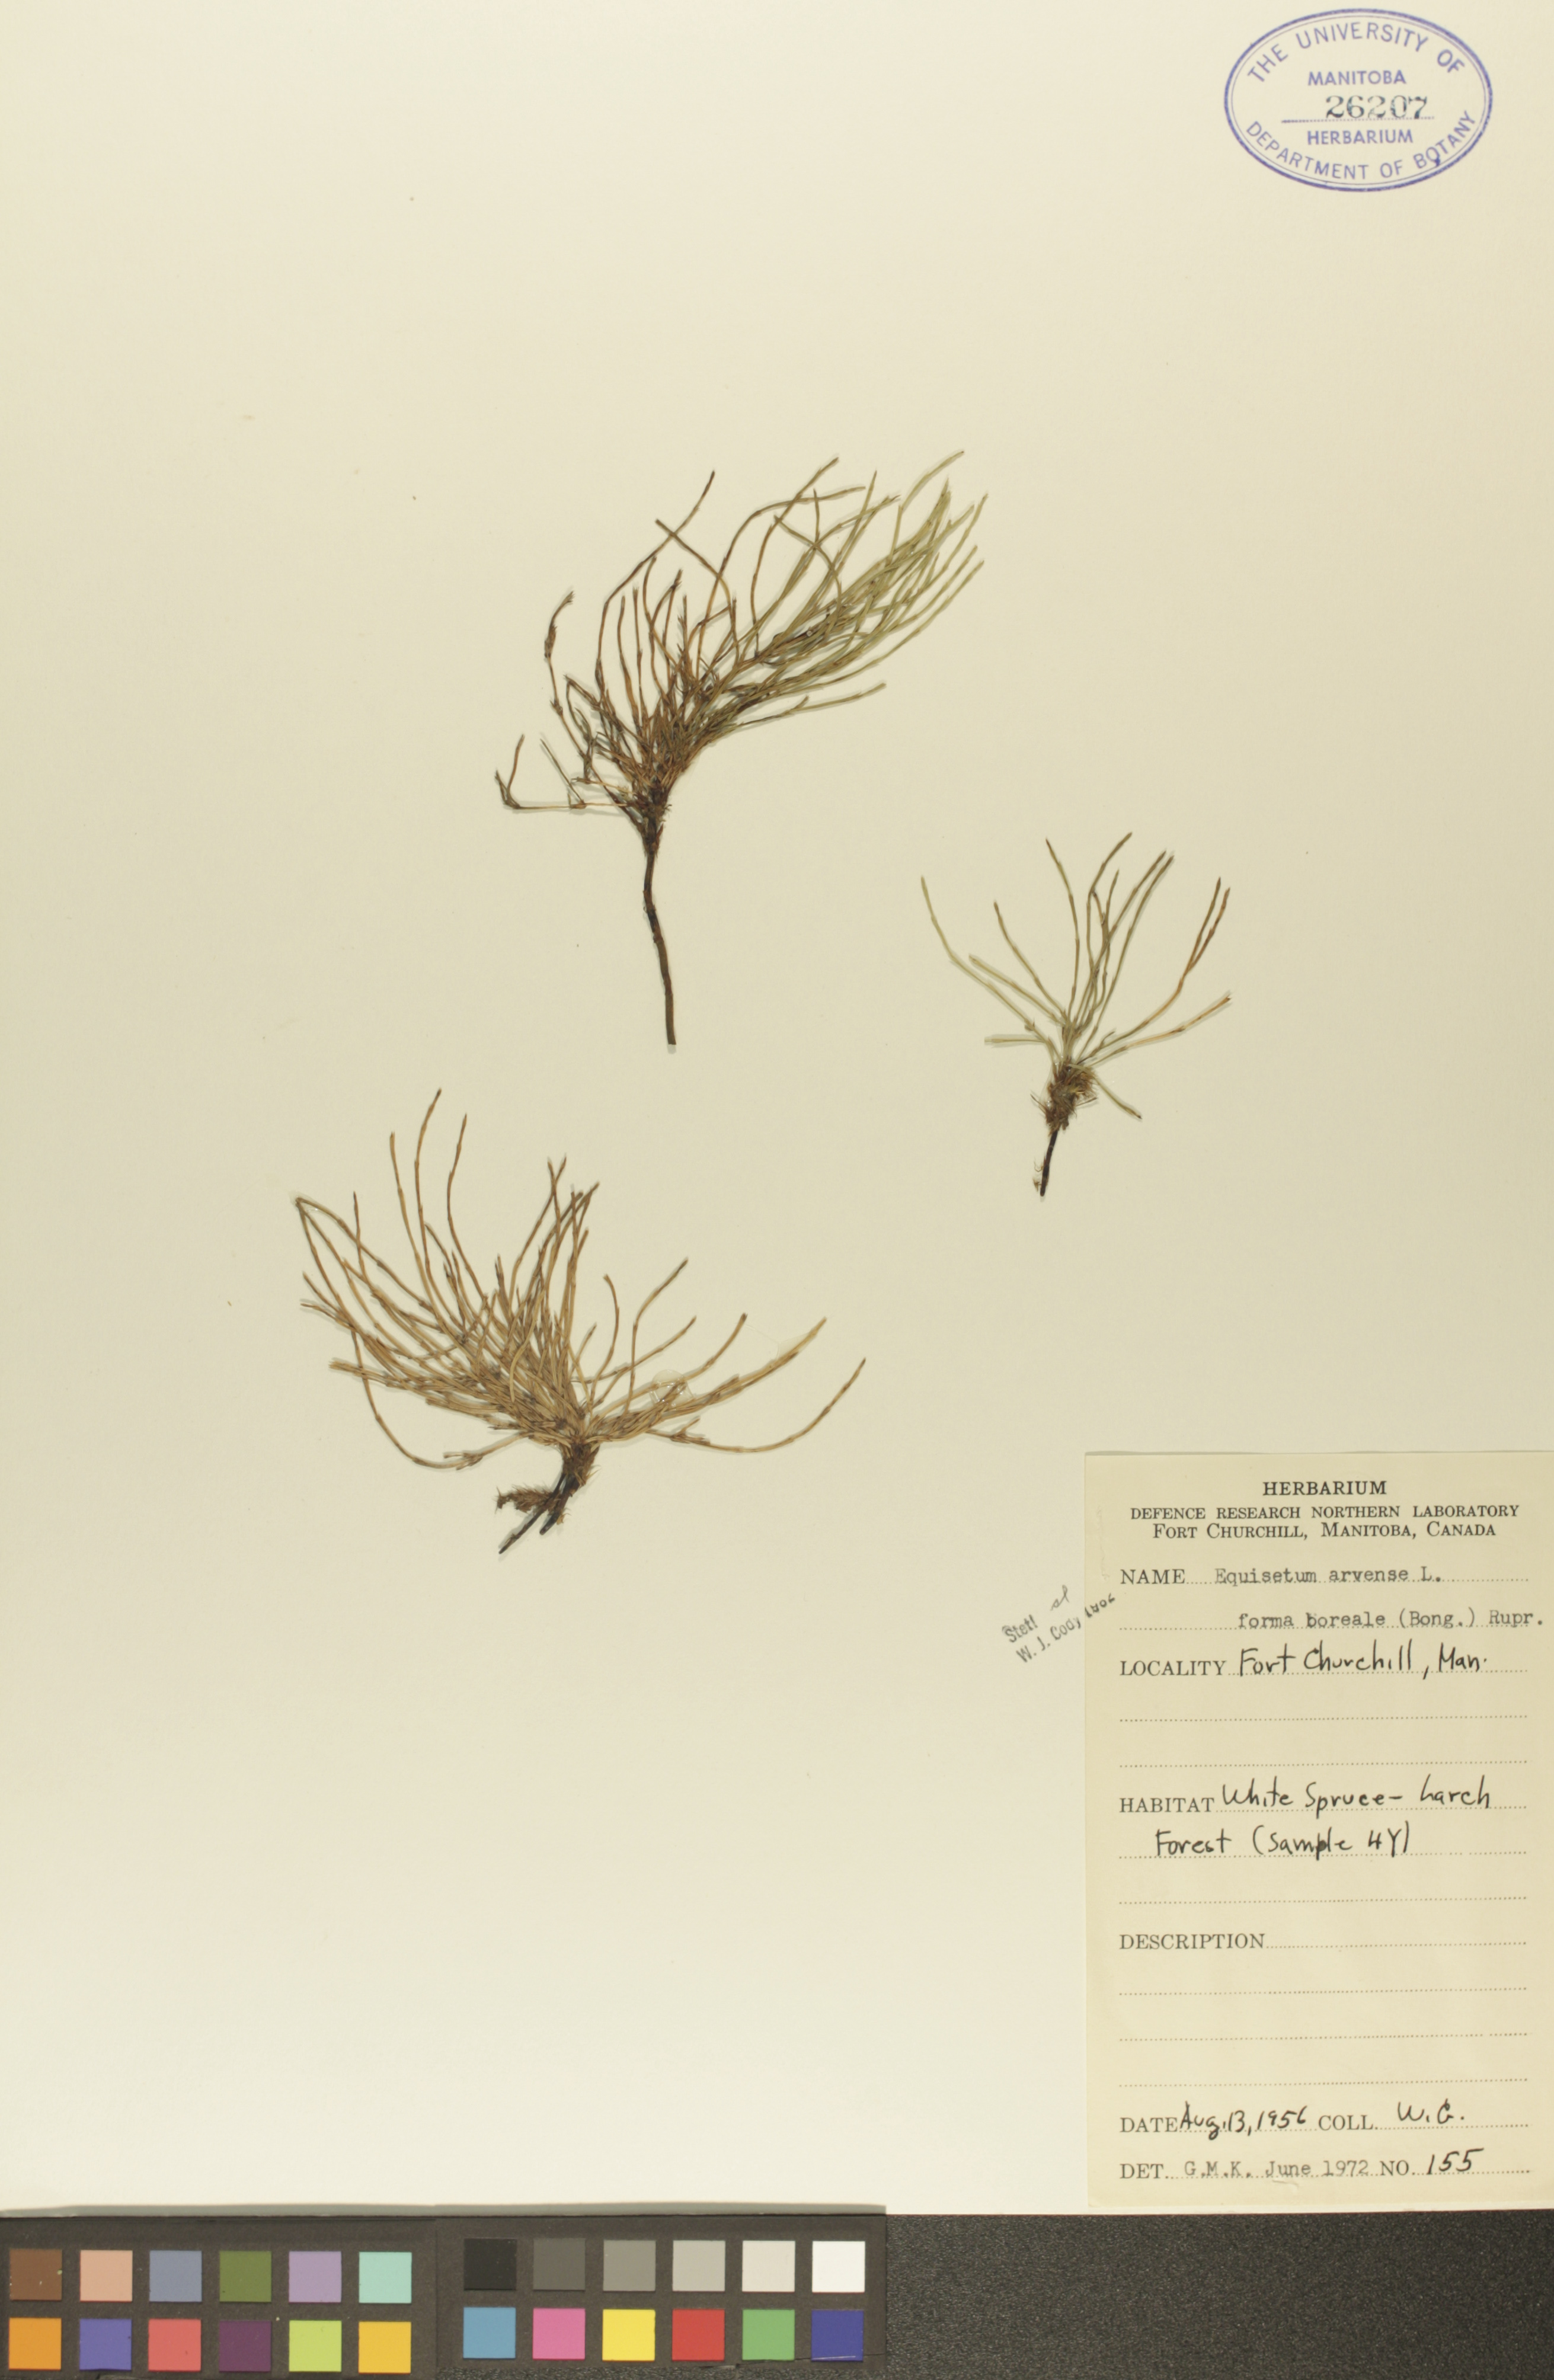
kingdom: Plantae
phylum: Tracheophyta
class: Polypodiopsida
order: Equisetales
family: Equisetaceae
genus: Equisetum
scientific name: Equisetum arvense
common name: Field horsetail
